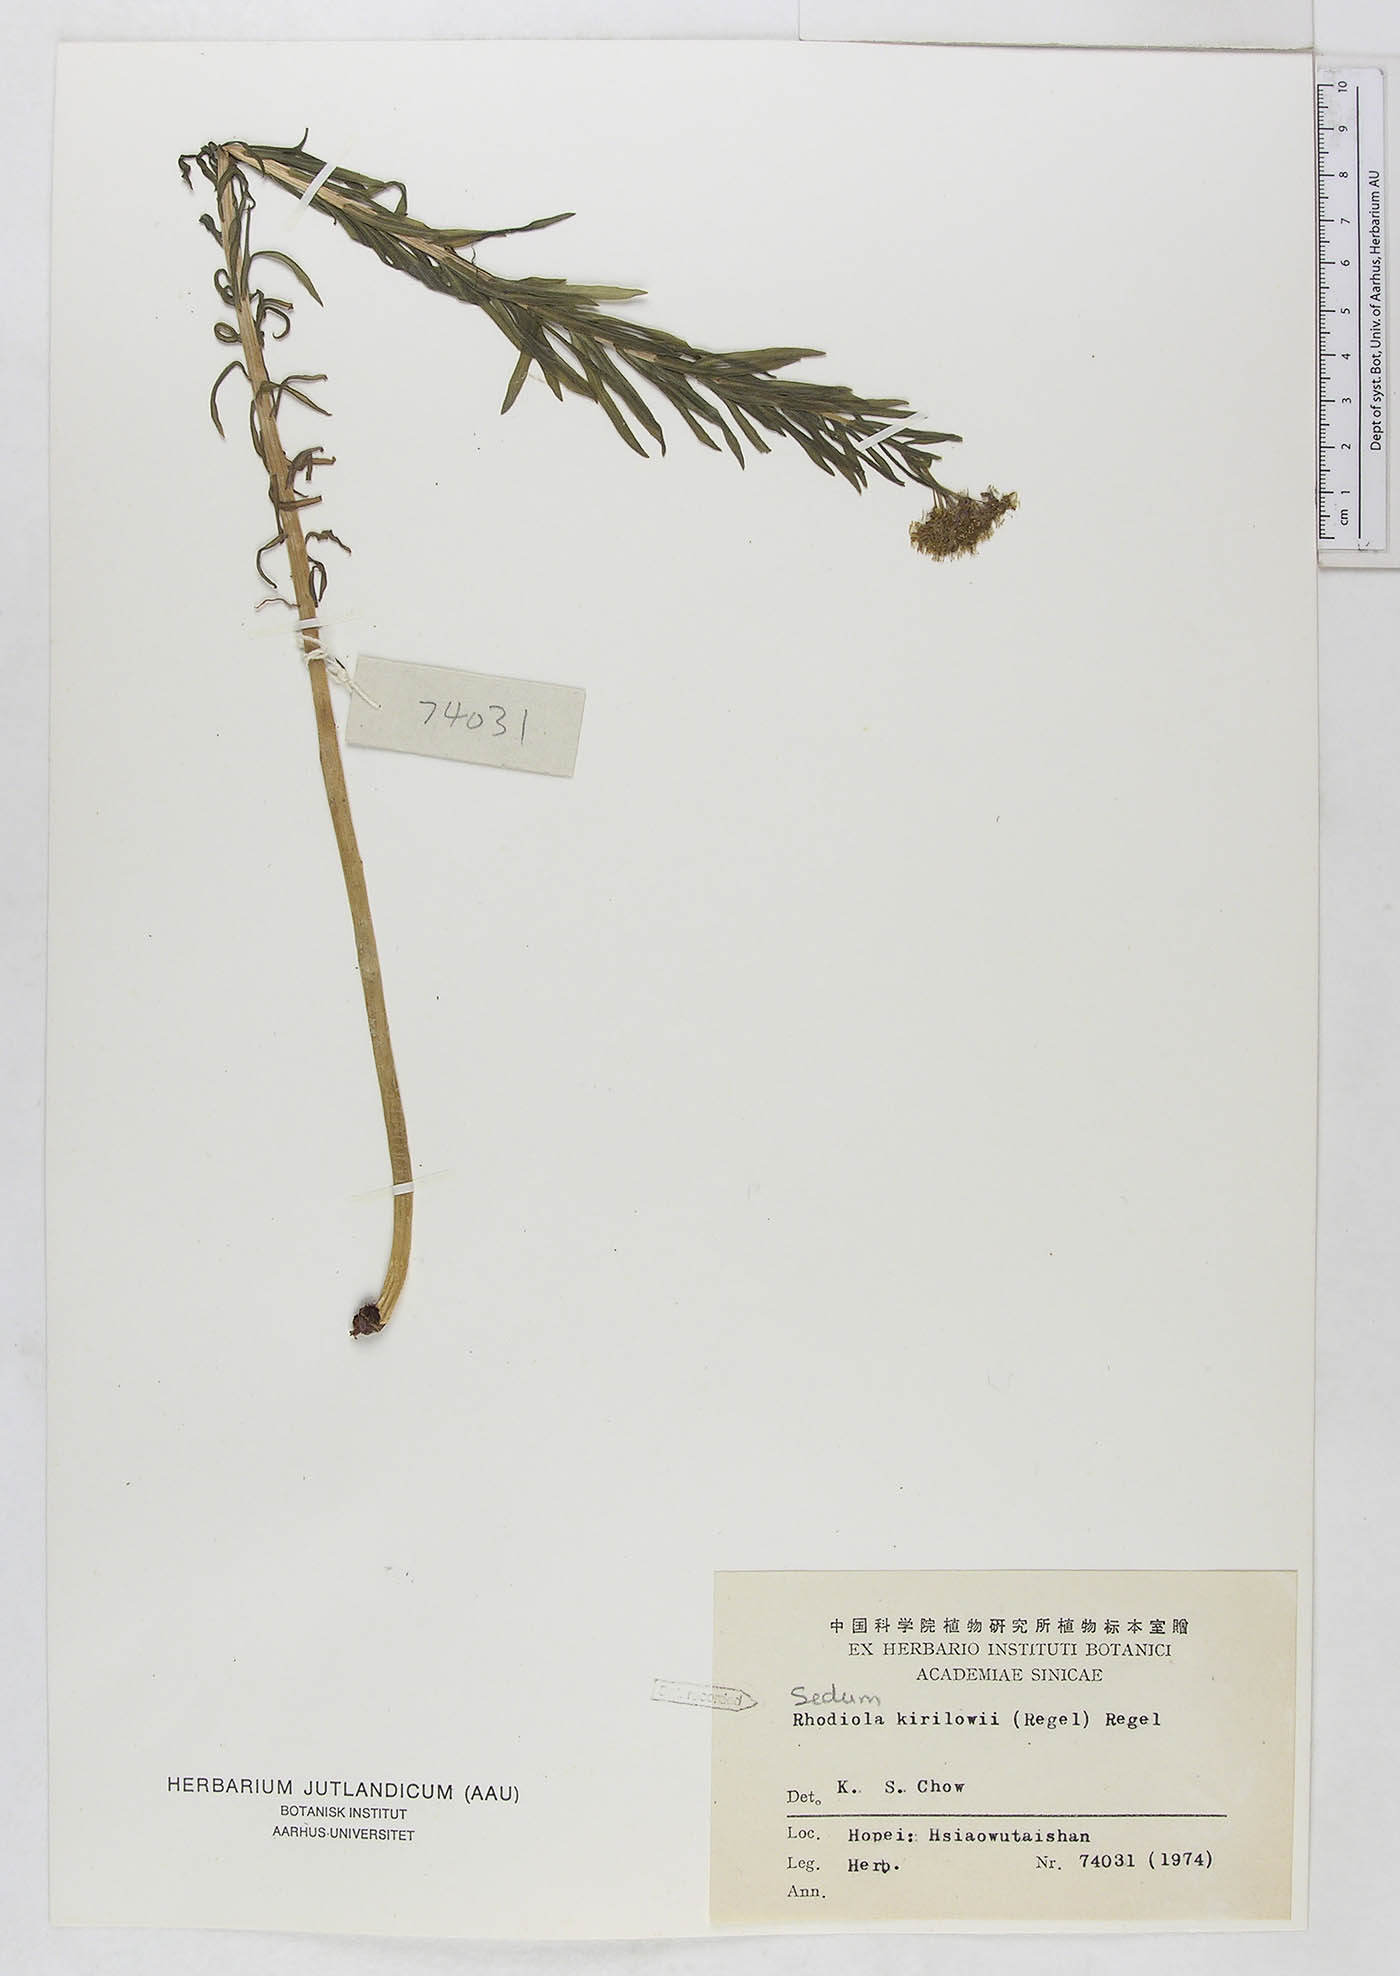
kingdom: Plantae
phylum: Tracheophyta
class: Magnoliopsida
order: Saxifragales
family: Crassulaceae
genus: Rhodiola
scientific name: Rhodiola kirilowii
